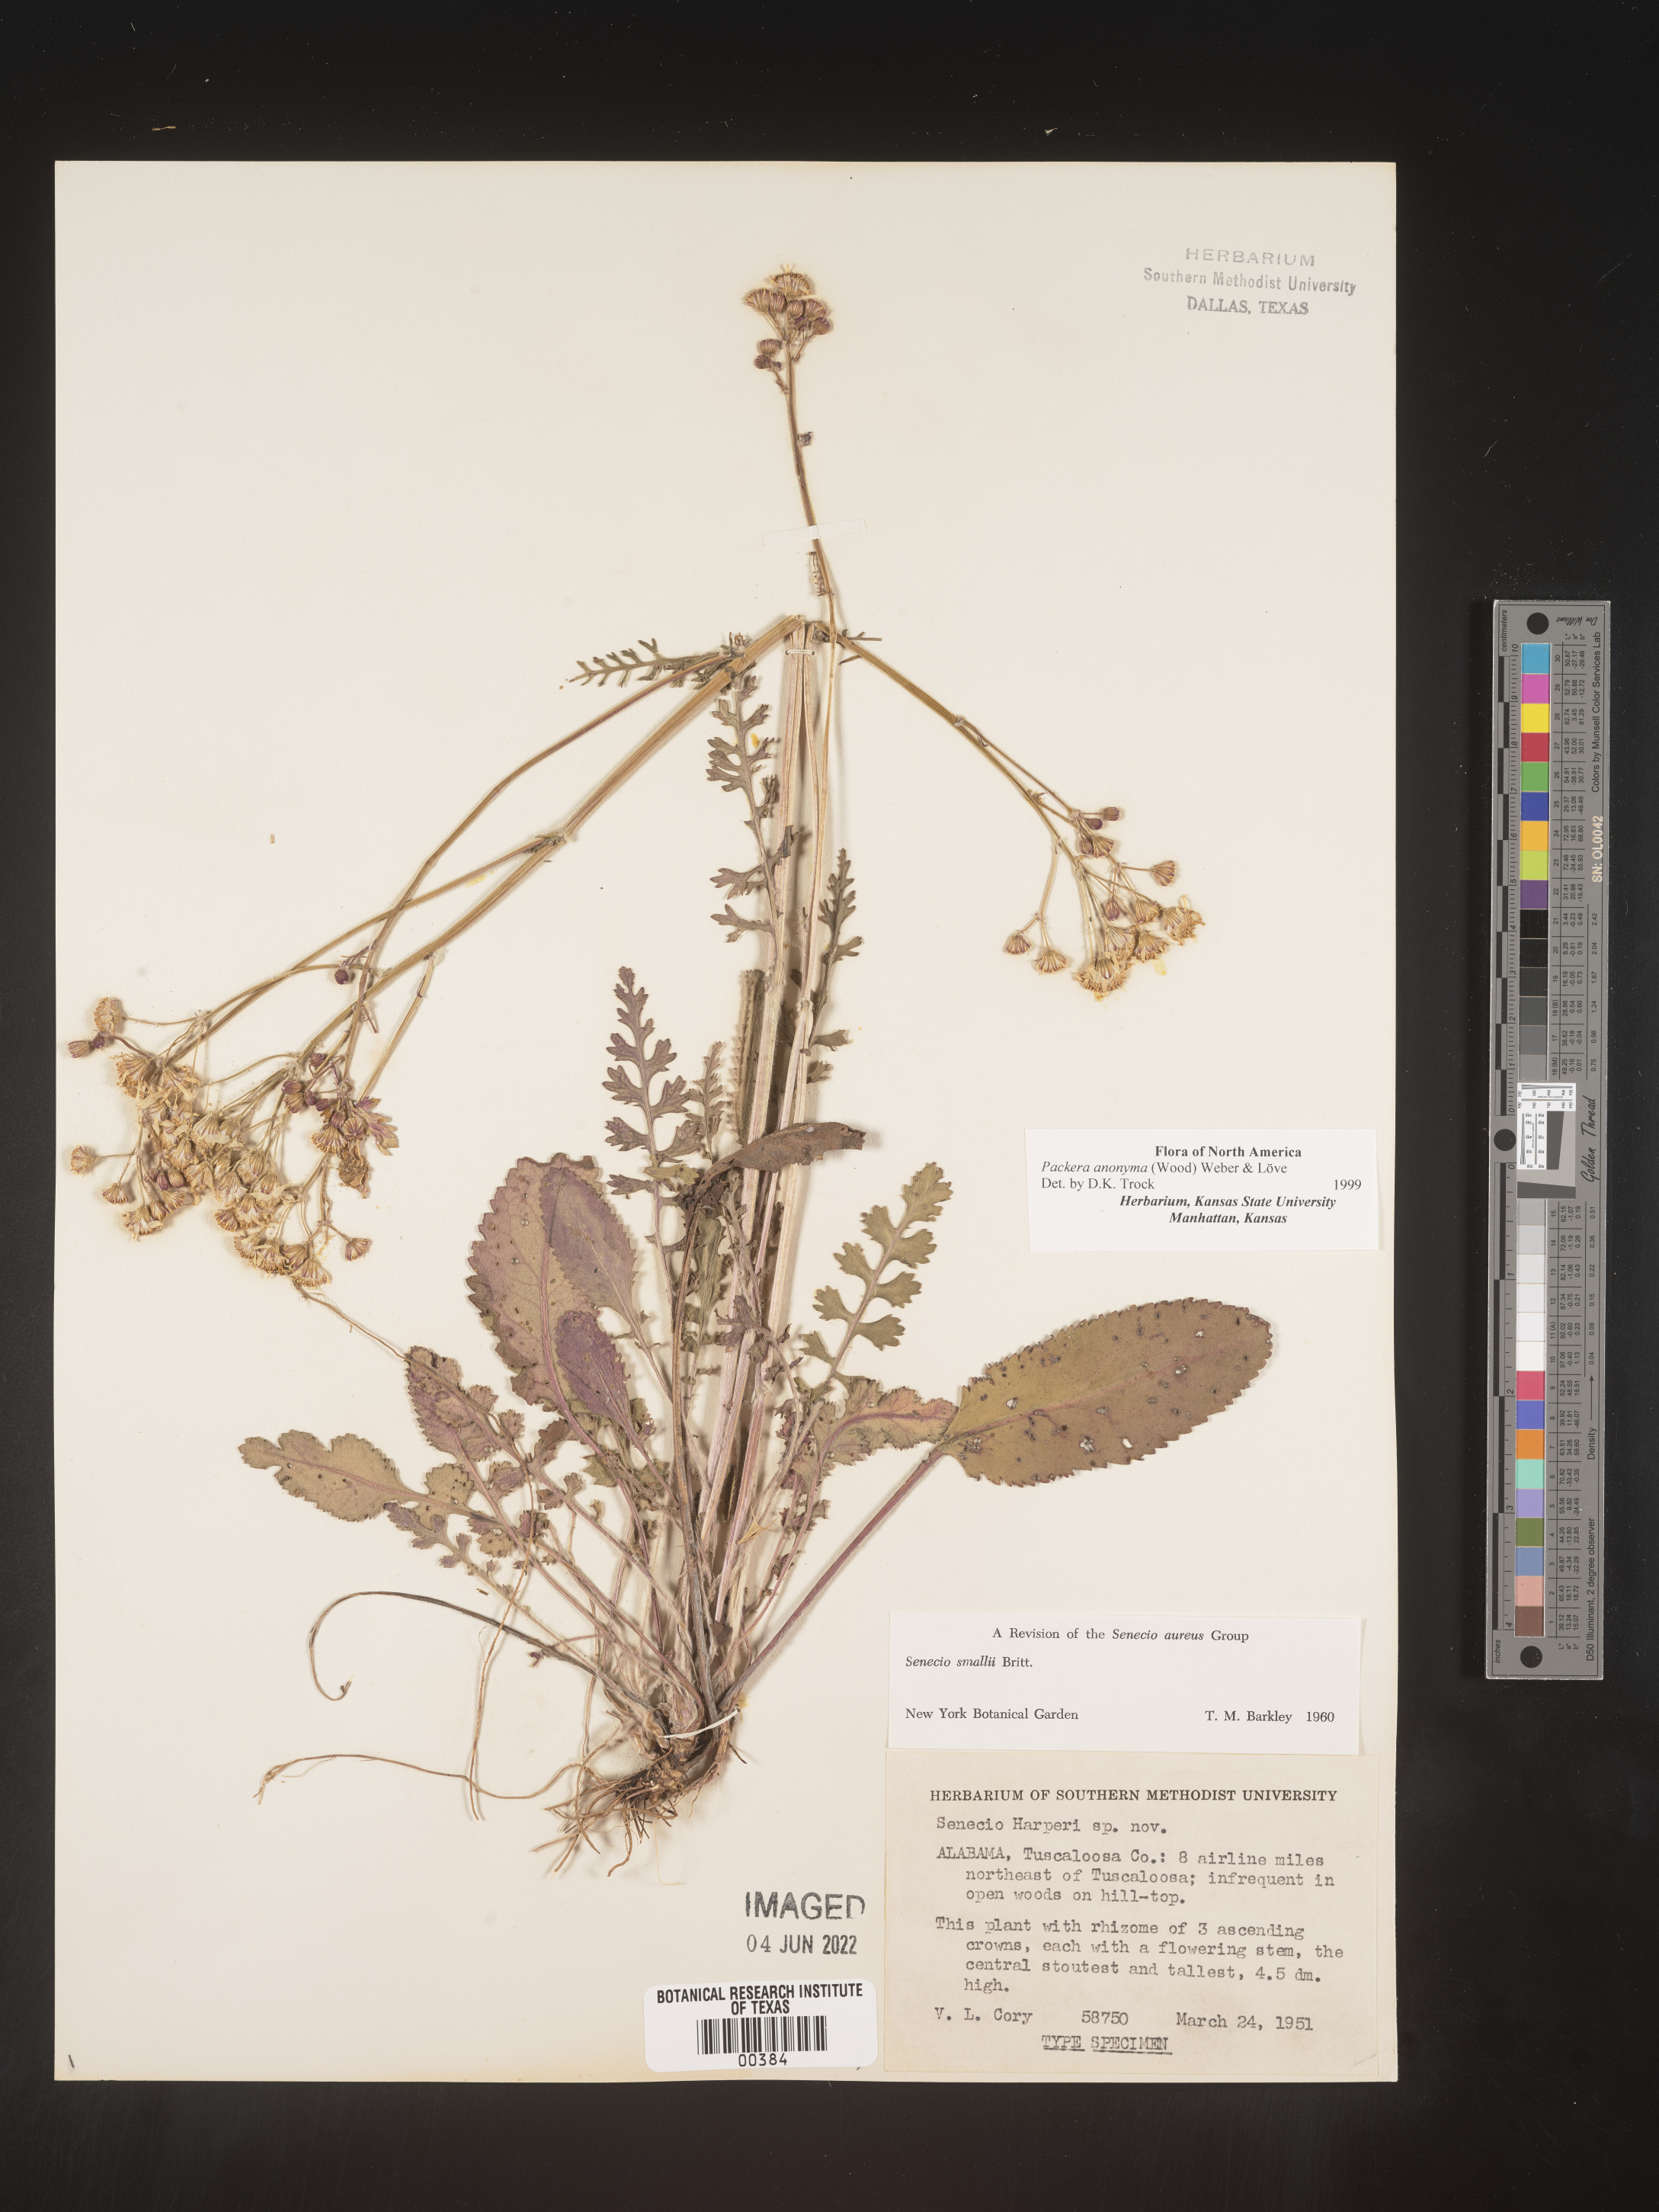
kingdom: Plantae
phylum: Tracheophyta
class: Magnoliopsida
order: Asterales
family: Asteraceae
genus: Packera
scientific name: Packera anonyma
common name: Small ragwort
